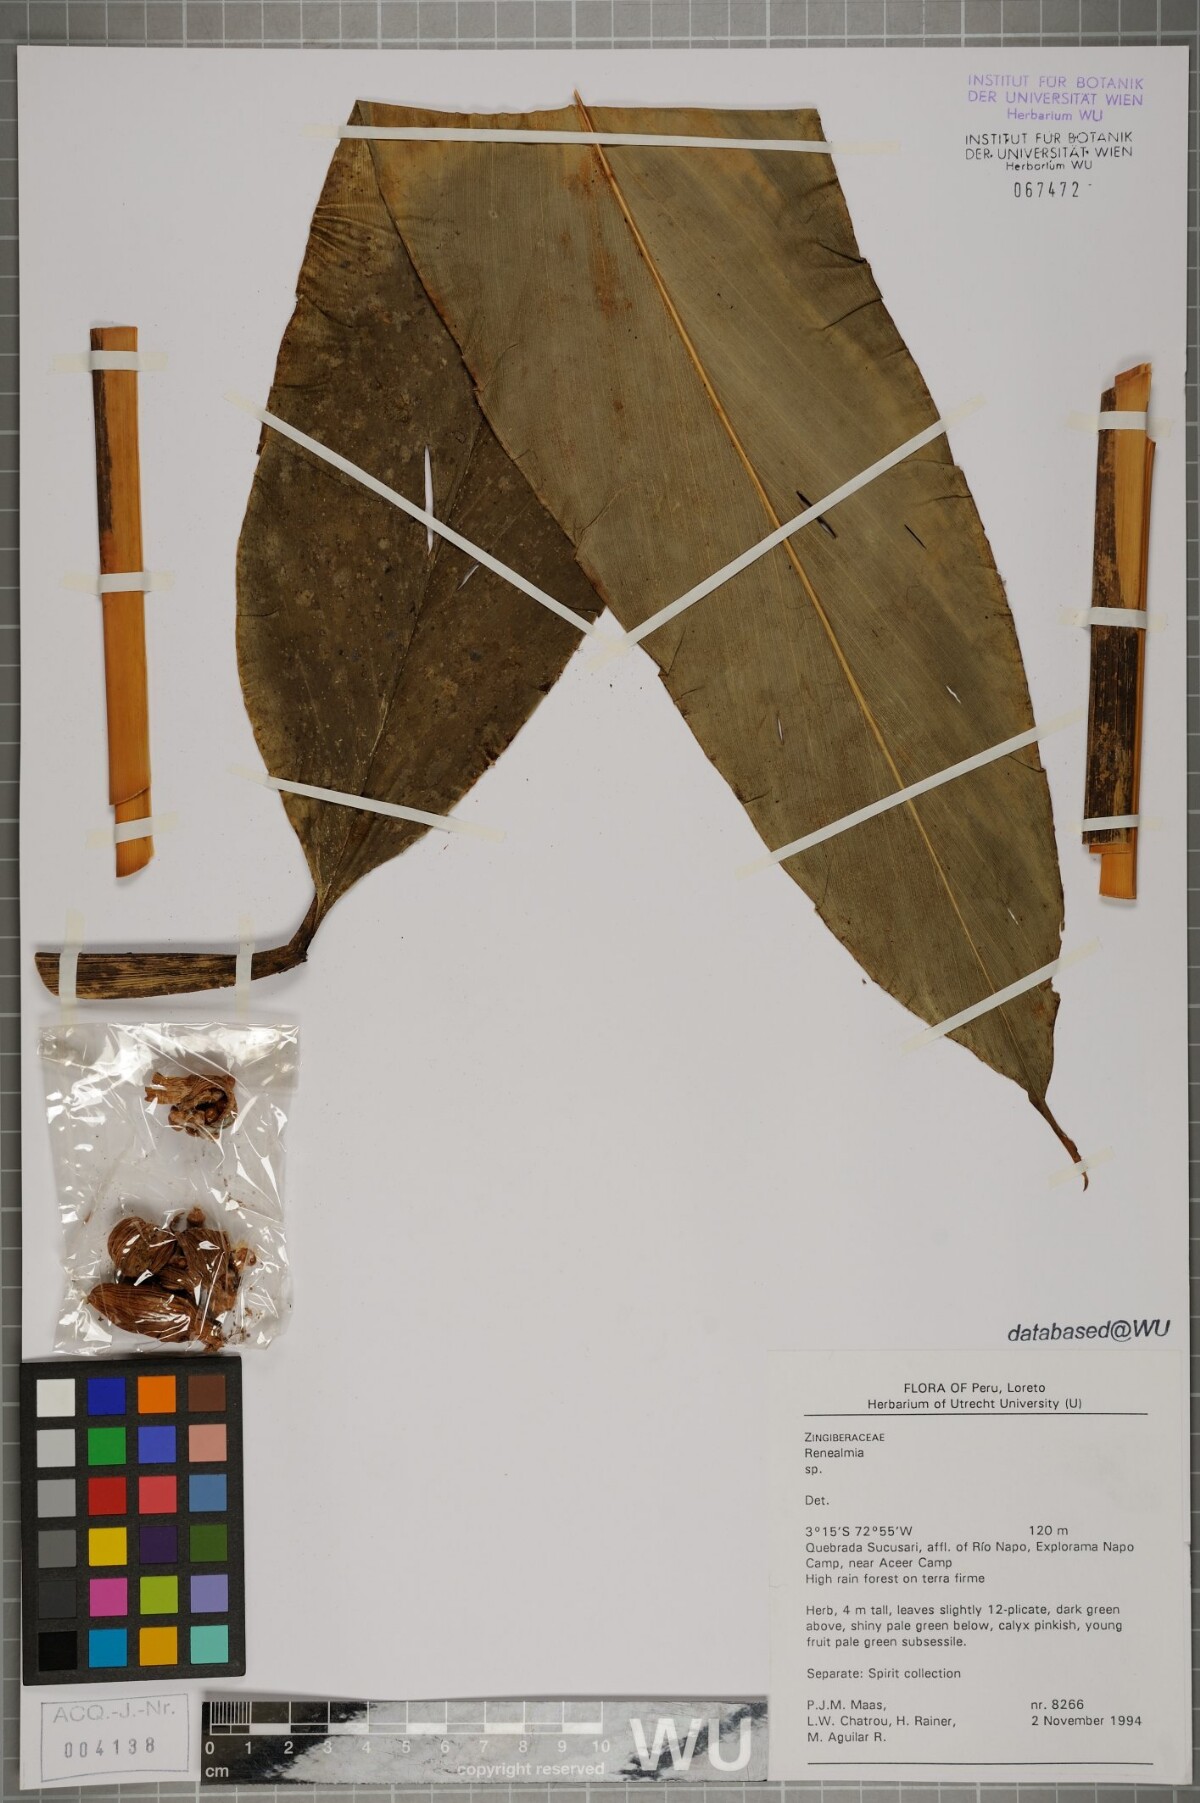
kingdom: Plantae
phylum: Tracheophyta
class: Liliopsida
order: Zingiberales
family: Zingiberaceae
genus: Renealmia
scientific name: Renealmia
